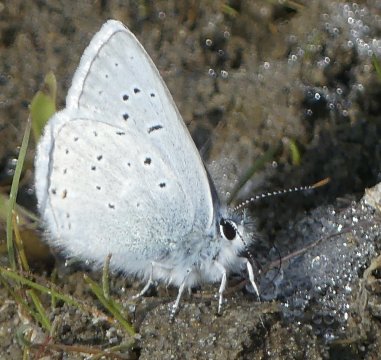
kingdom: Animalia
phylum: Arthropoda
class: Insecta
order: Lepidoptera
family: Lycaenidae
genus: Plebejus
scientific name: Plebejus saepiolus
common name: Greenish Blue
